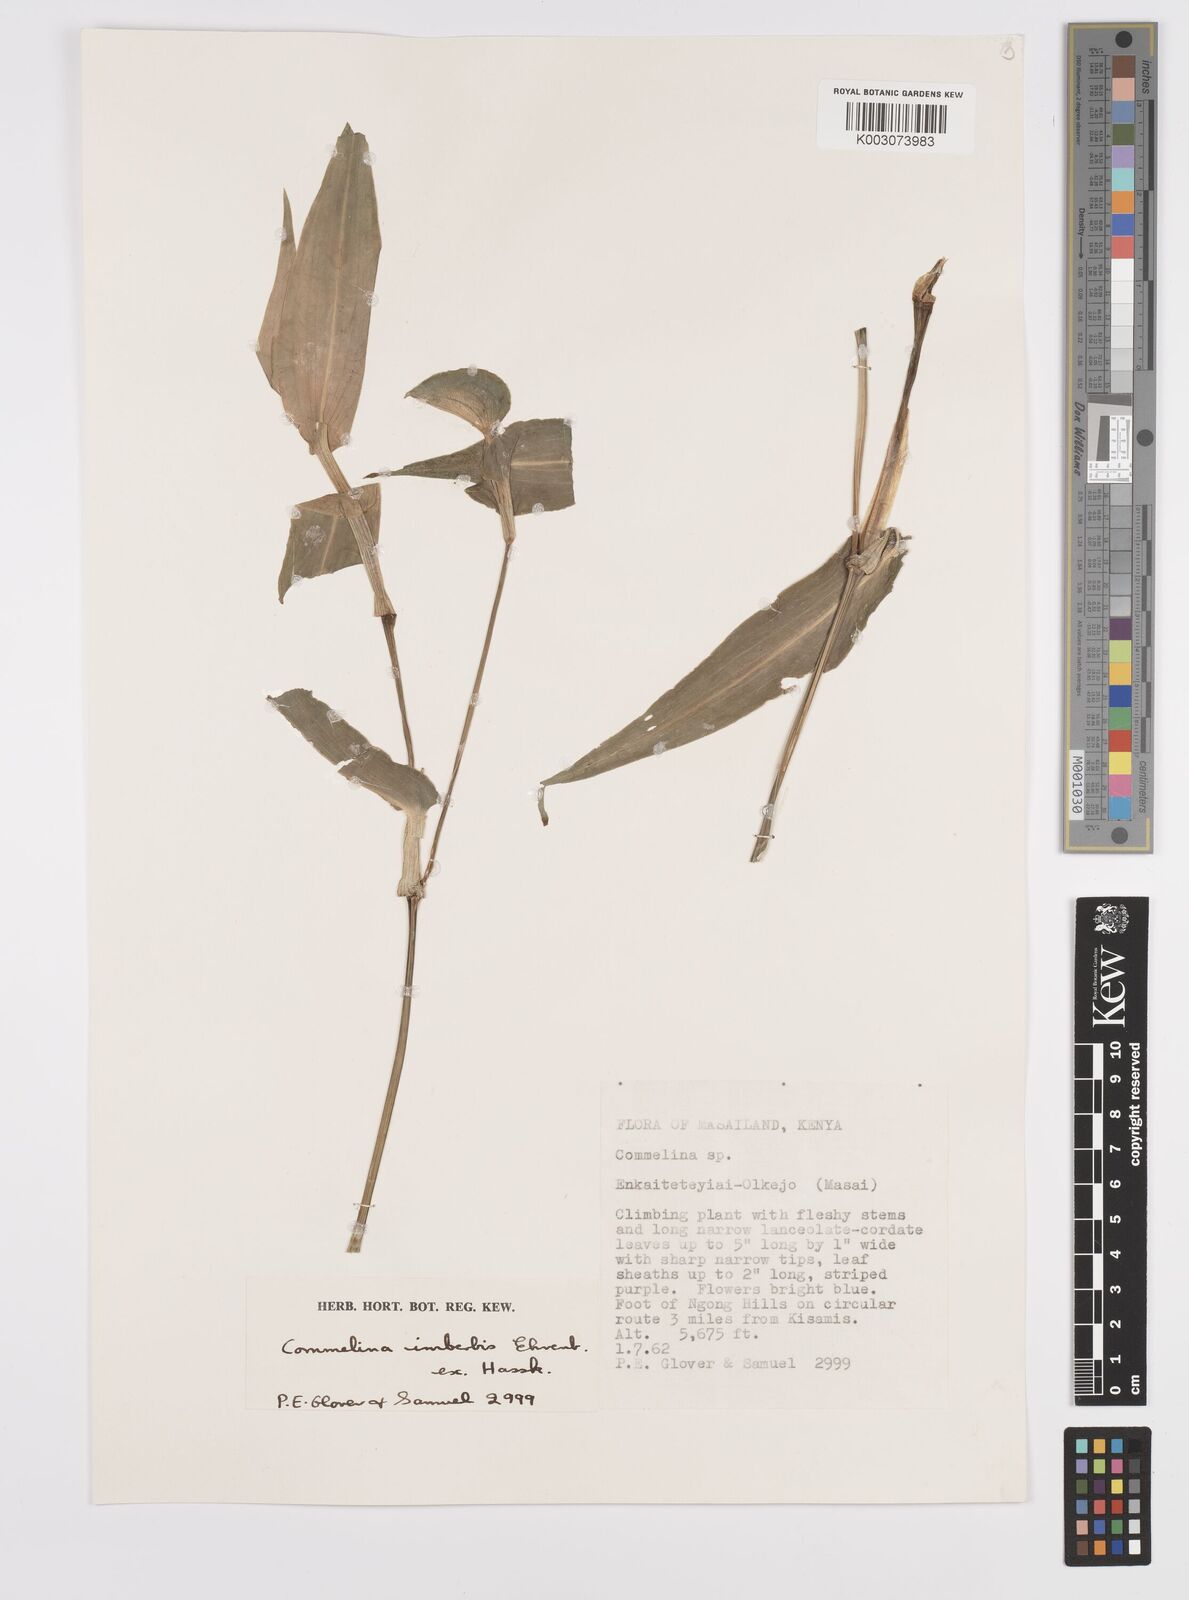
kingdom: Plantae
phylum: Tracheophyta
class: Liliopsida
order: Commelinales
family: Commelinaceae
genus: Commelina
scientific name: Commelina imberbis
